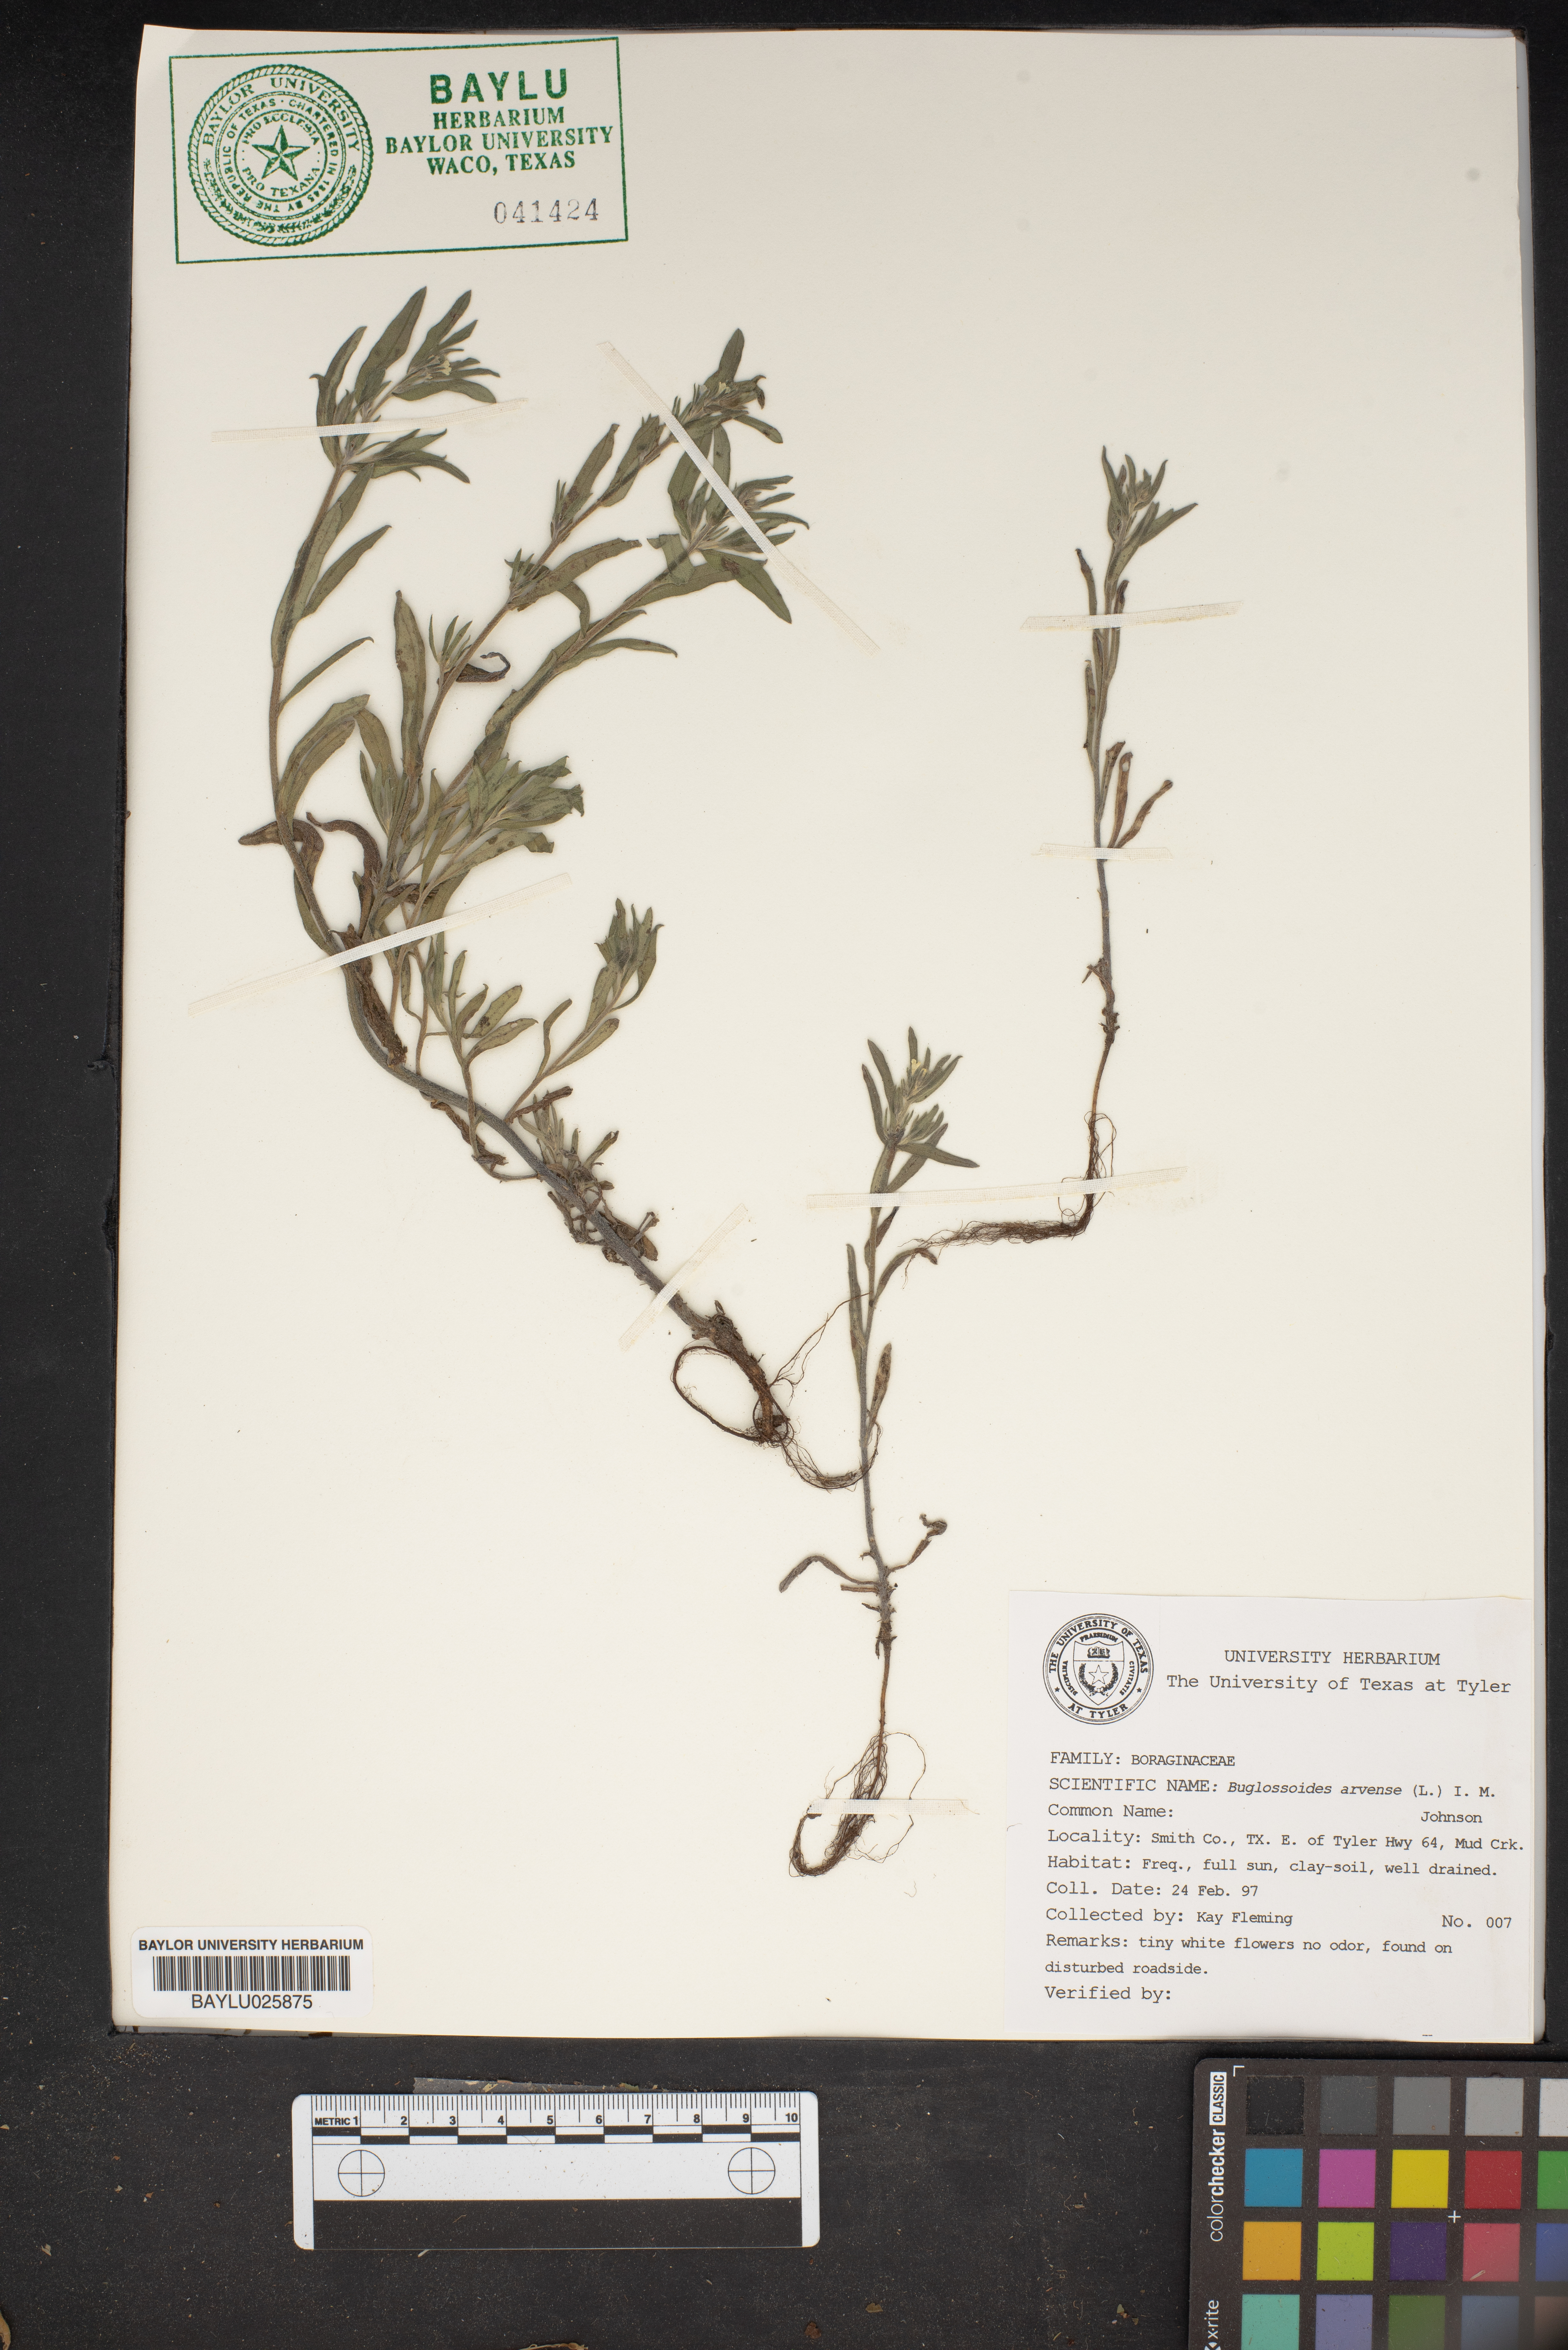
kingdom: Plantae
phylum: Tracheophyta
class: Magnoliopsida
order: Boraginales
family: Boraginaceae
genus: Buglossoides
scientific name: Buglossoides arvensis
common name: Corn gromwell
